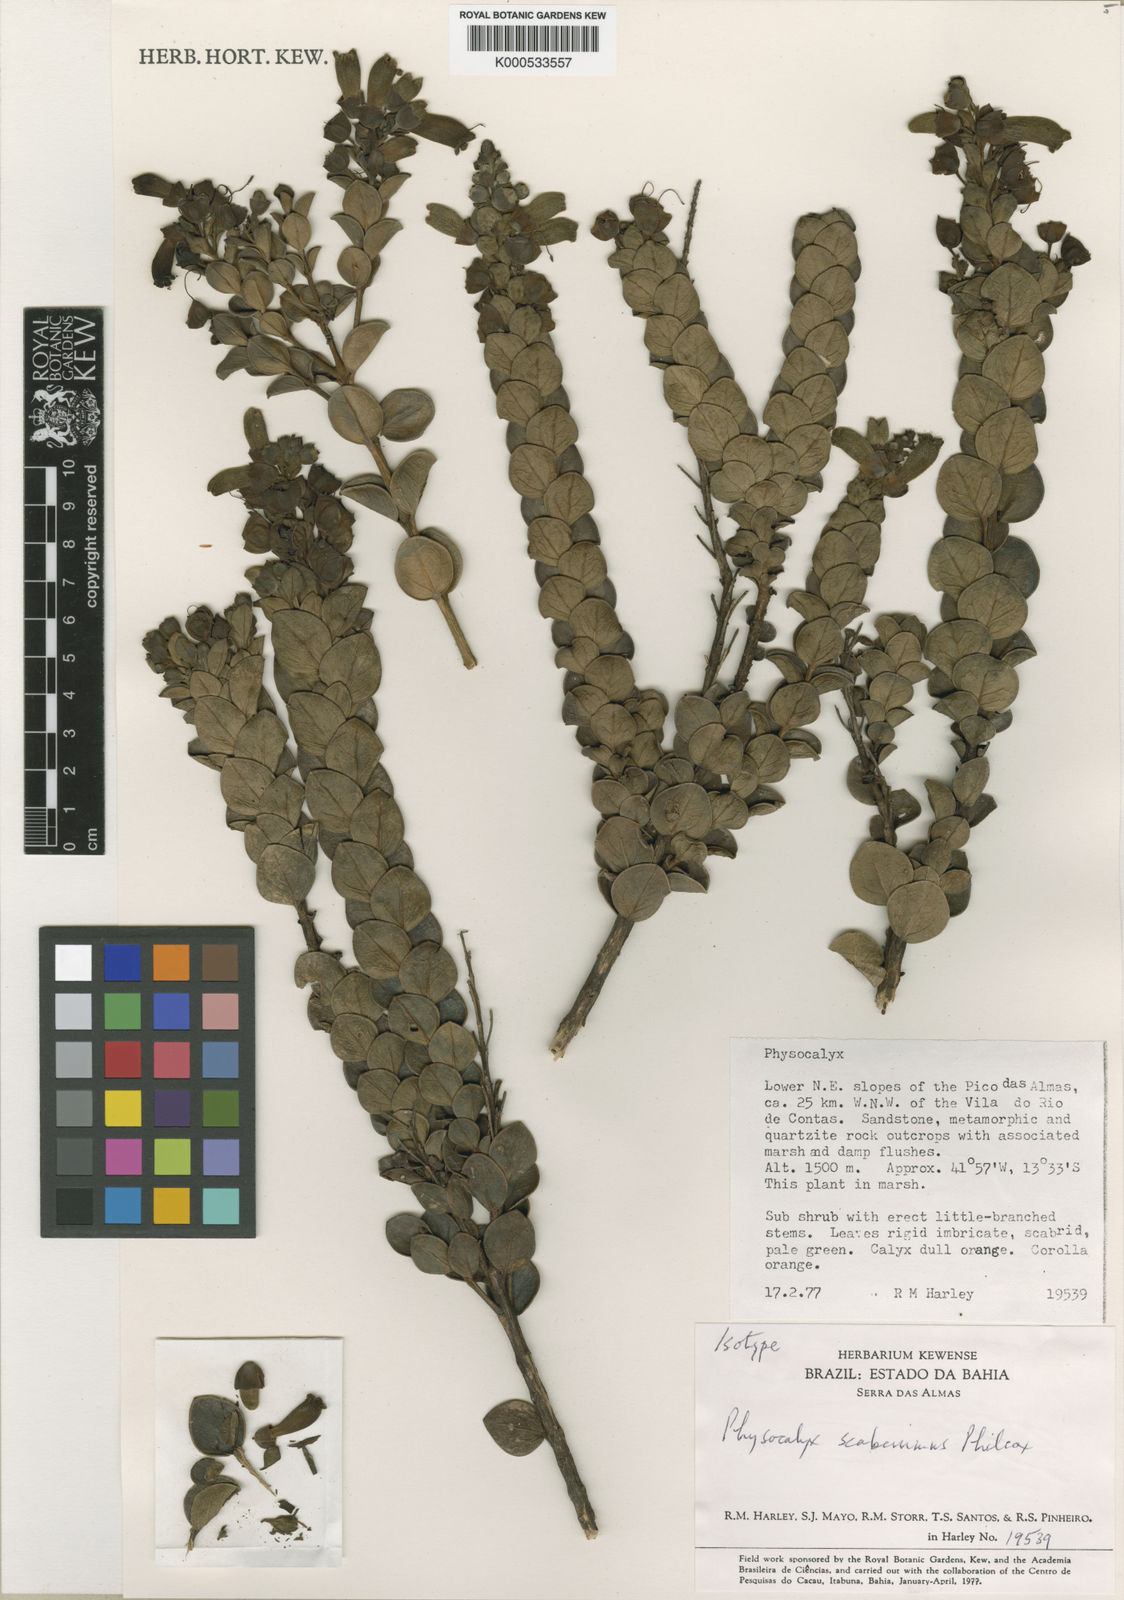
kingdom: Plantae
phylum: Tracheophyta
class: Magnoliopsida
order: Lamiales
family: Orobanchaceae
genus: Physocalyx
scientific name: Physocalyx scaberrimus
